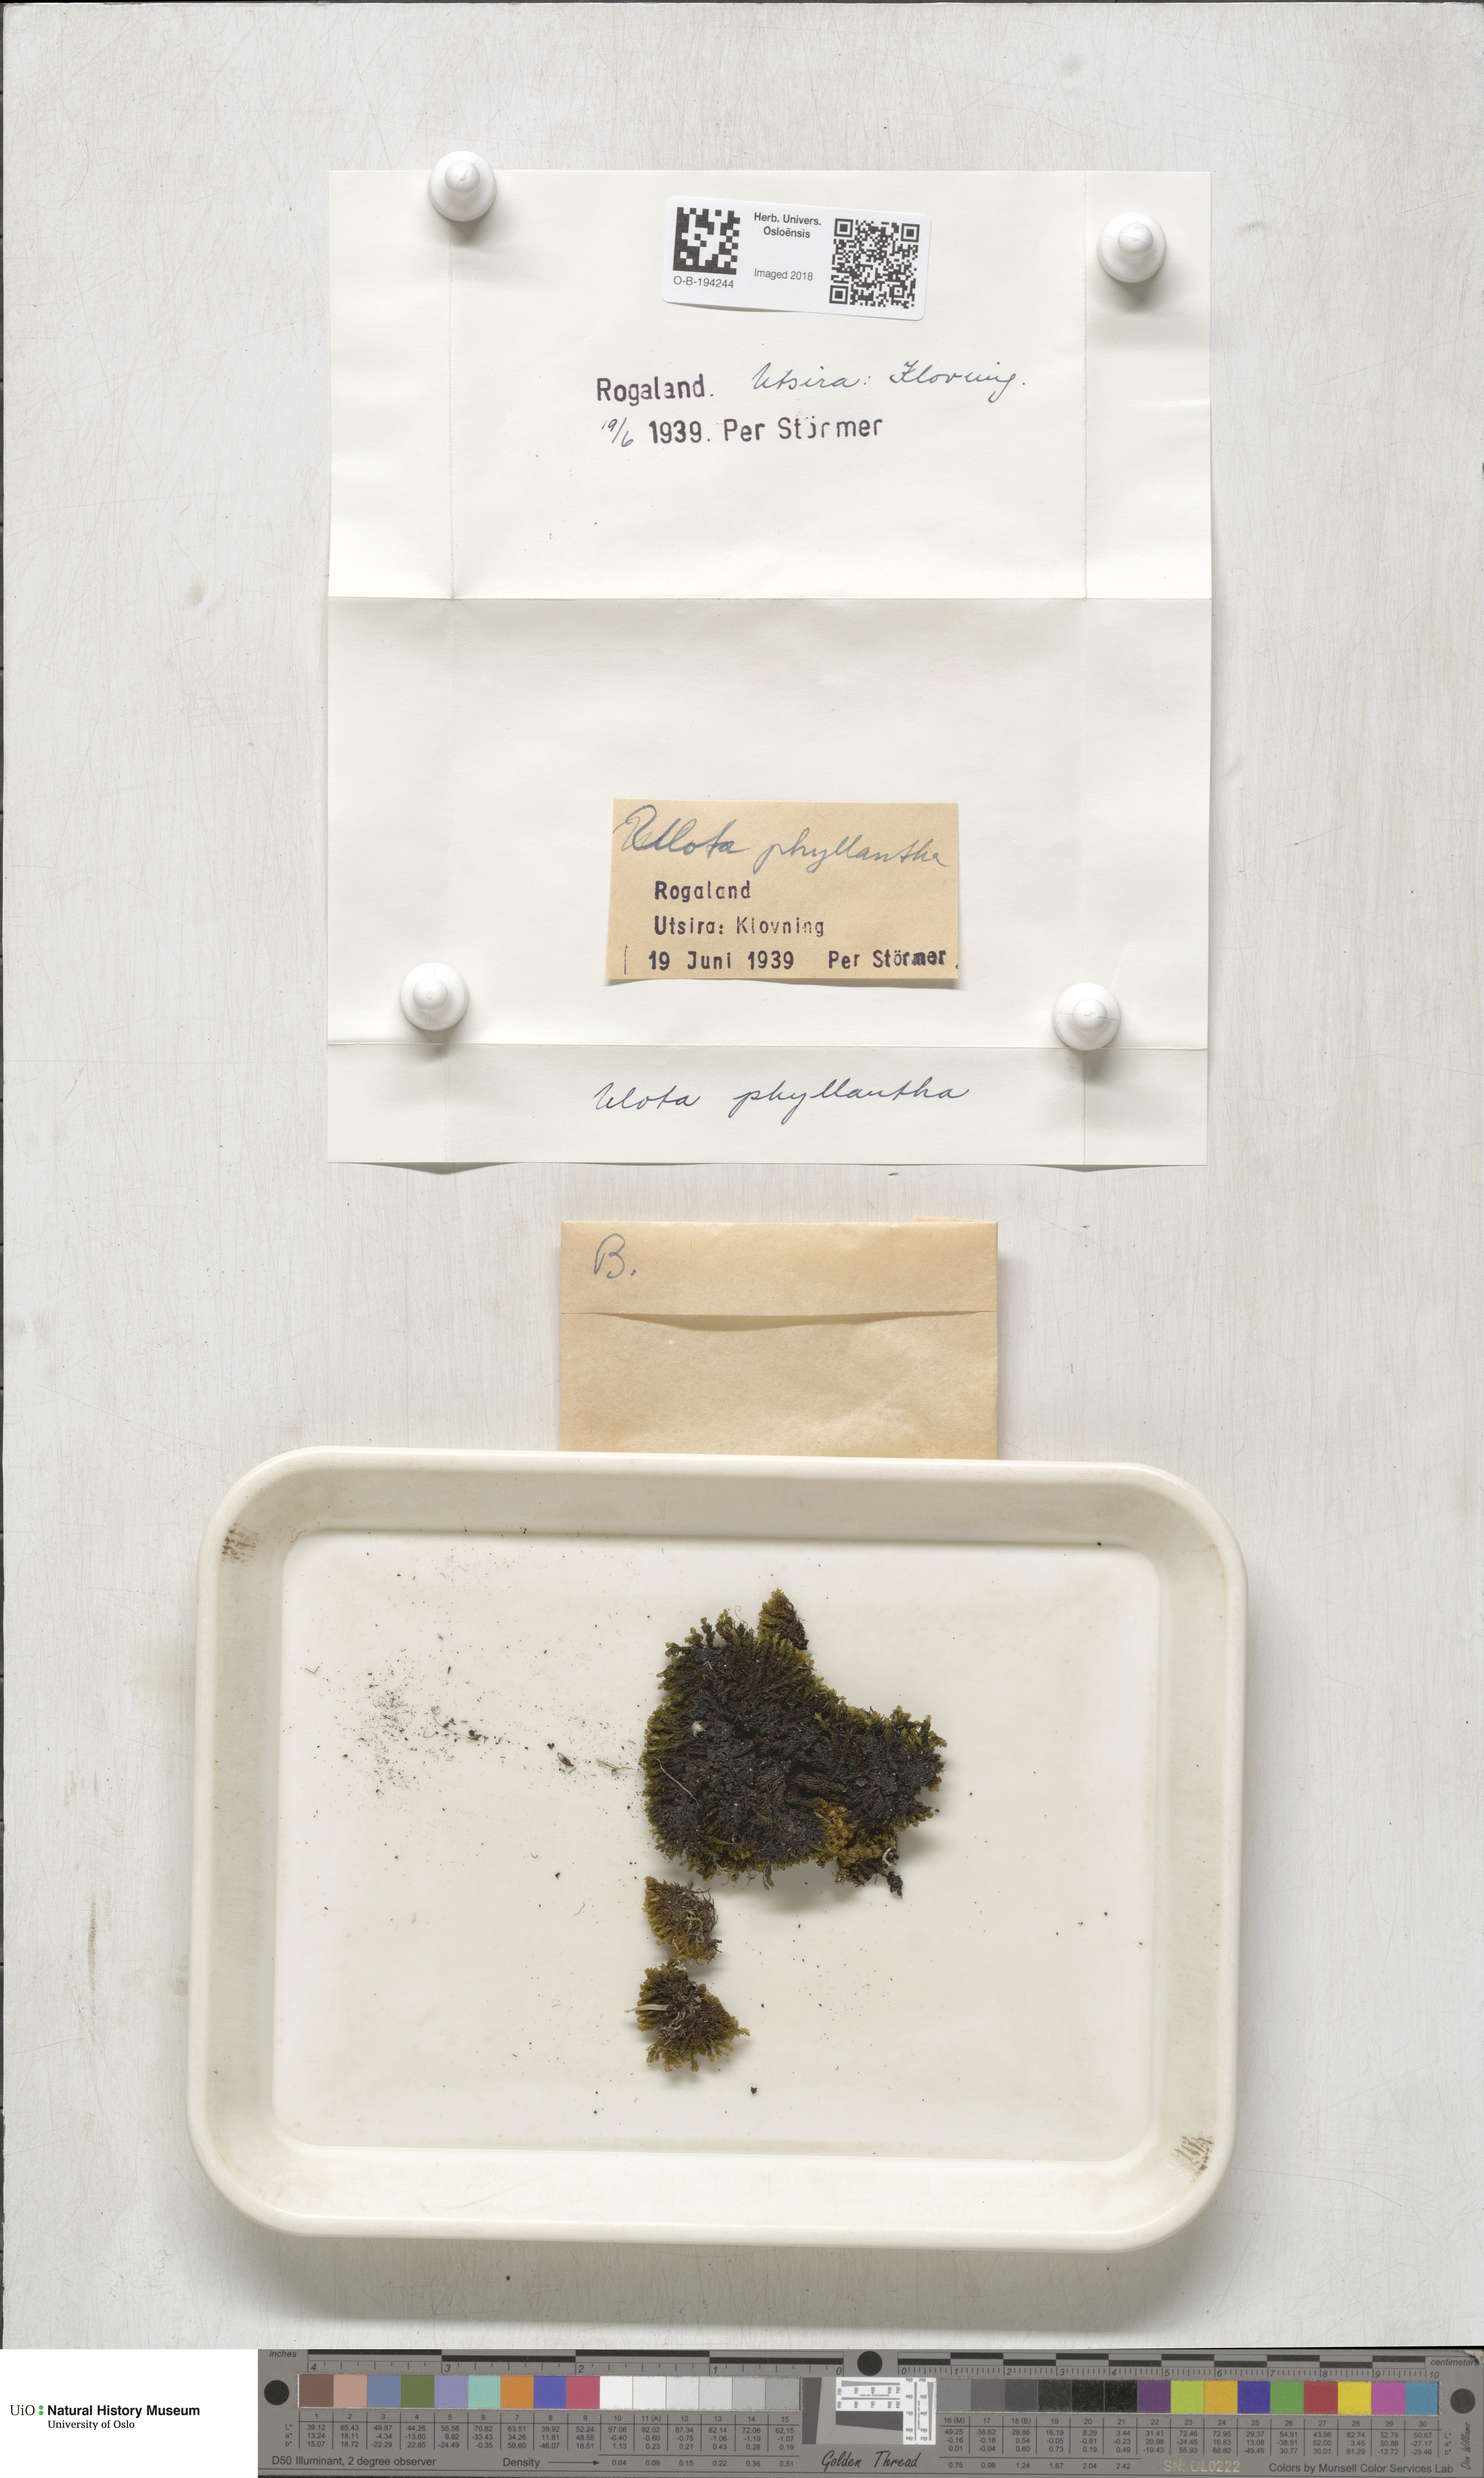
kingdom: Plantae
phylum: Bryophyta
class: Bryopsida
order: Orthotrichales
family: Orthotrichaceae
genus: Plenogemma
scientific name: Plenogemma phyllantha
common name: Frizzled pincushion
